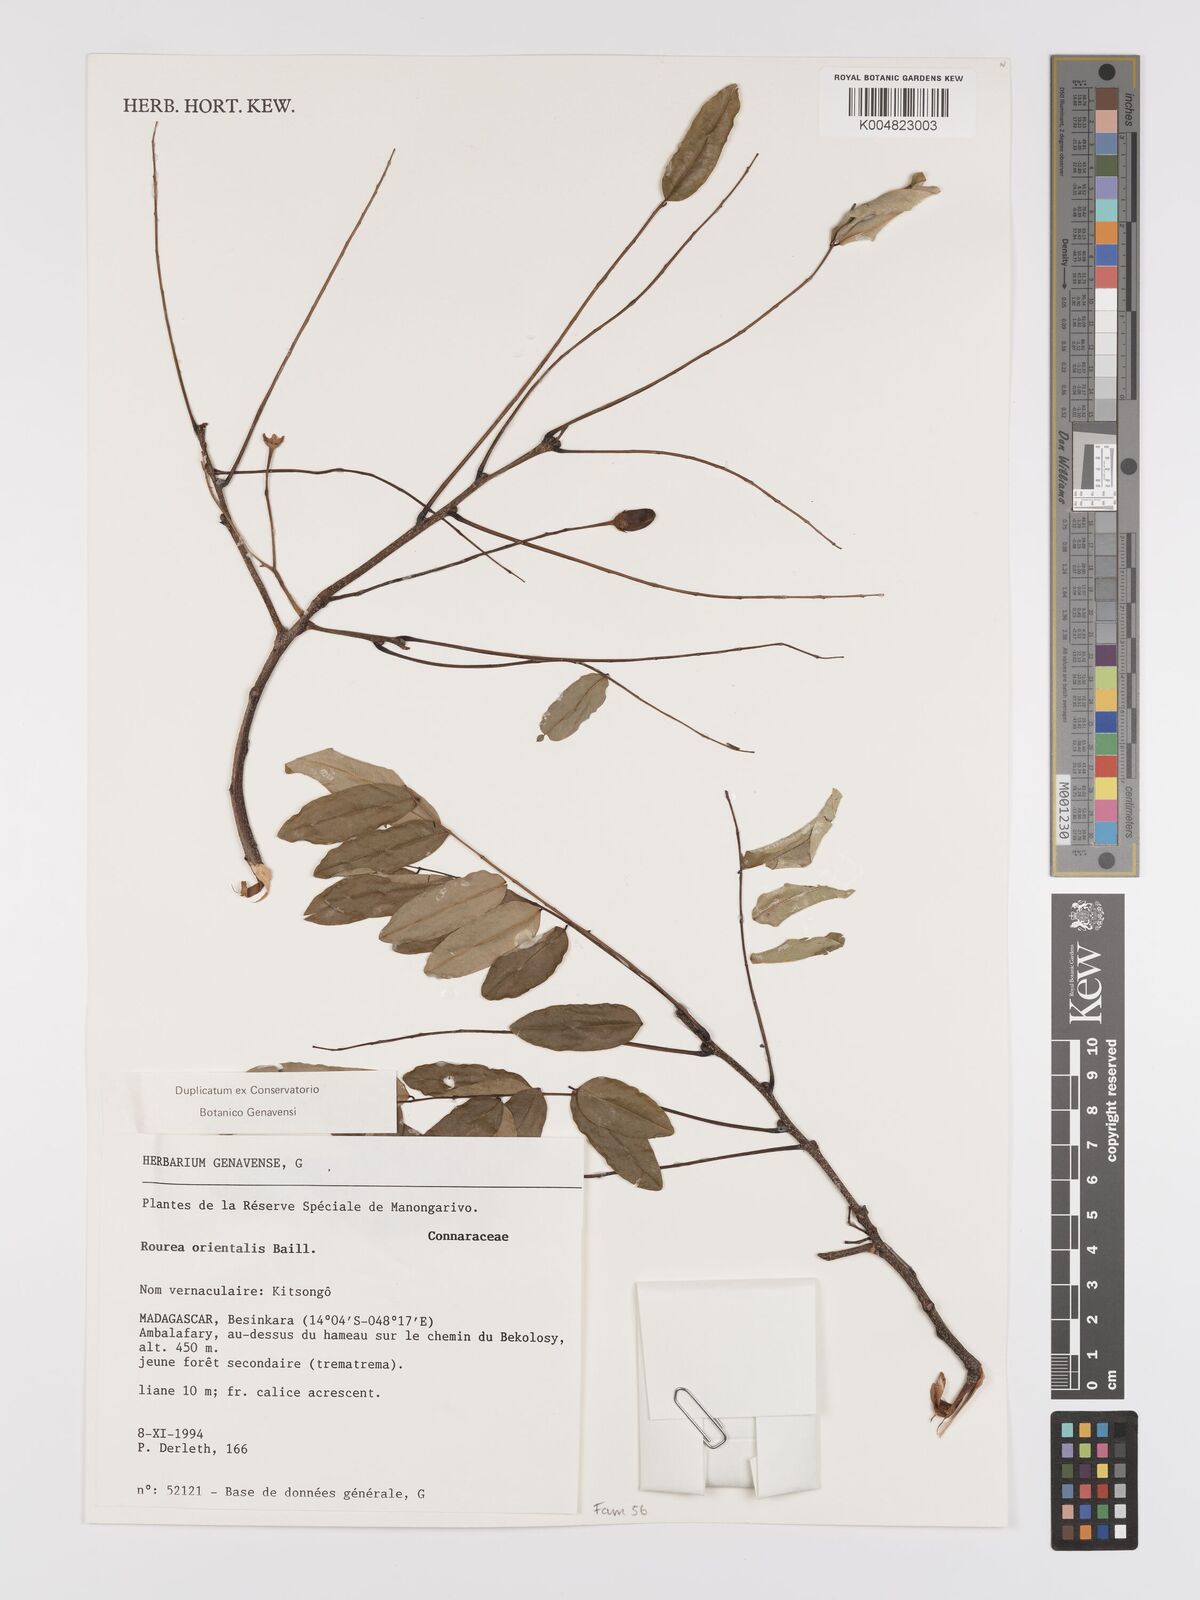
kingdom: Plantae
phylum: Tracheophyta
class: Magnoliopsida
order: Oxalidales
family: Connaraceae
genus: Rourea
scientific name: Rourea orientalis
